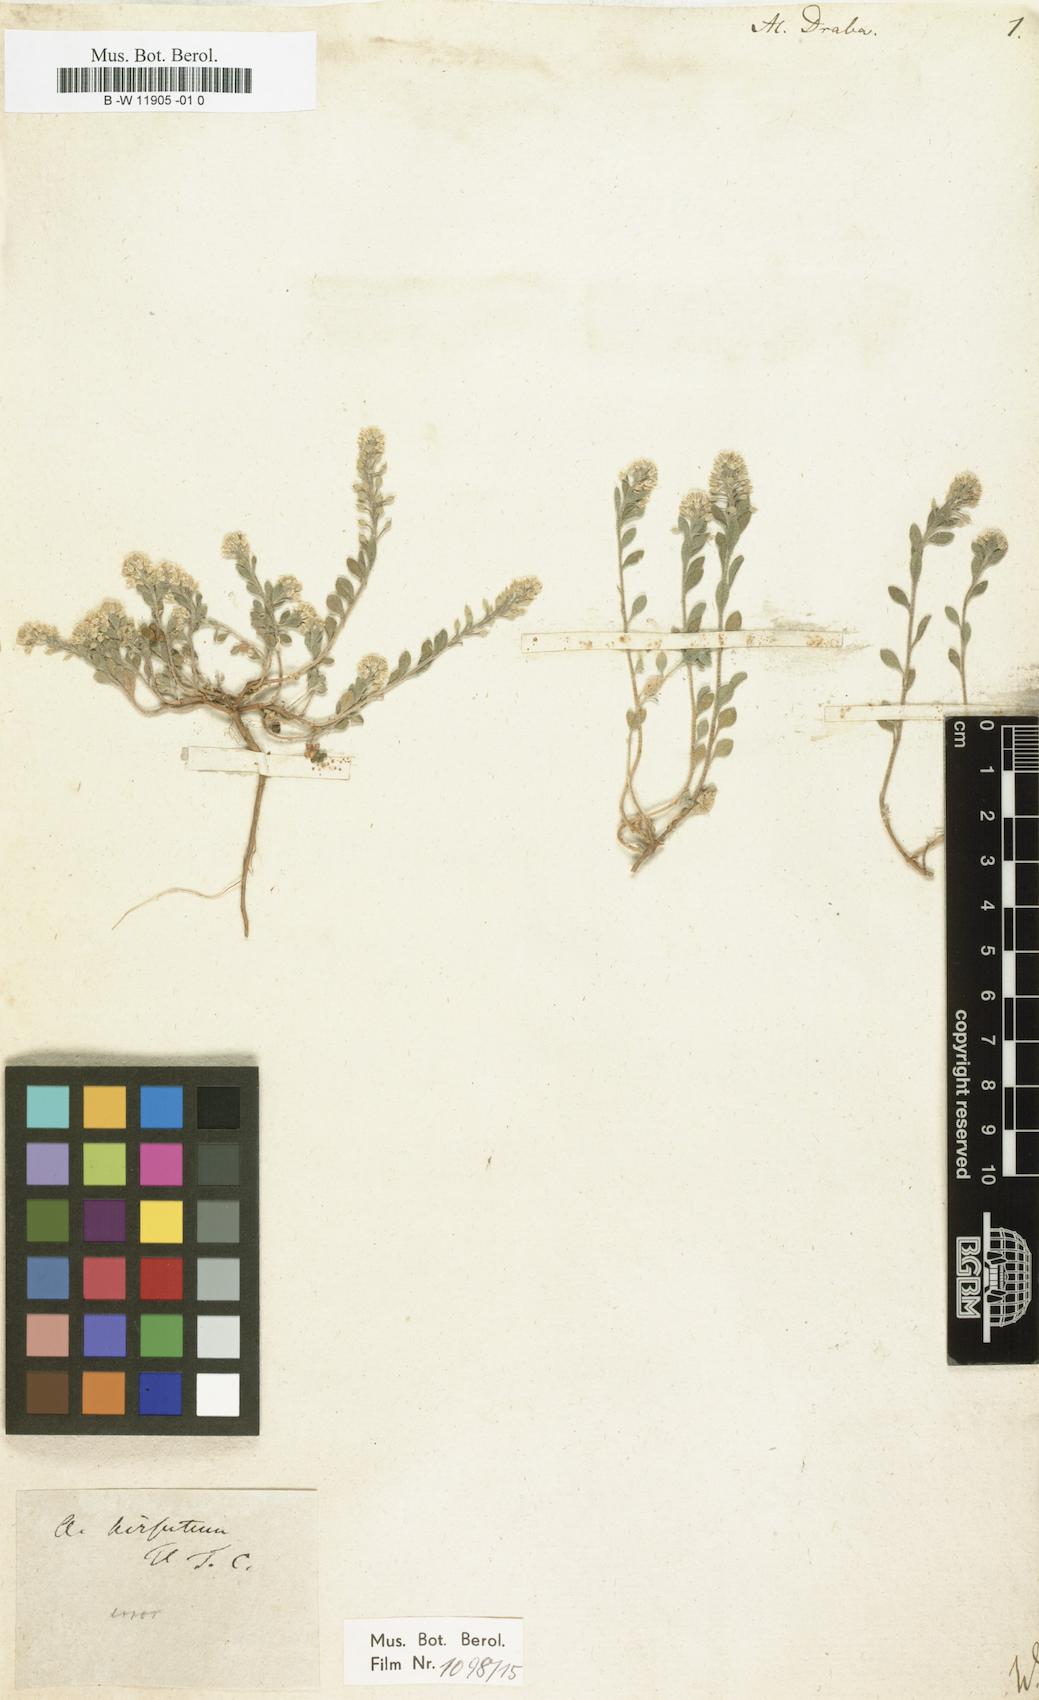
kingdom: Plantae
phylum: Tracheophyta
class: Magnoliopsida
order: Brassicales
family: Brassicaceae
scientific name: Brassicaceae
